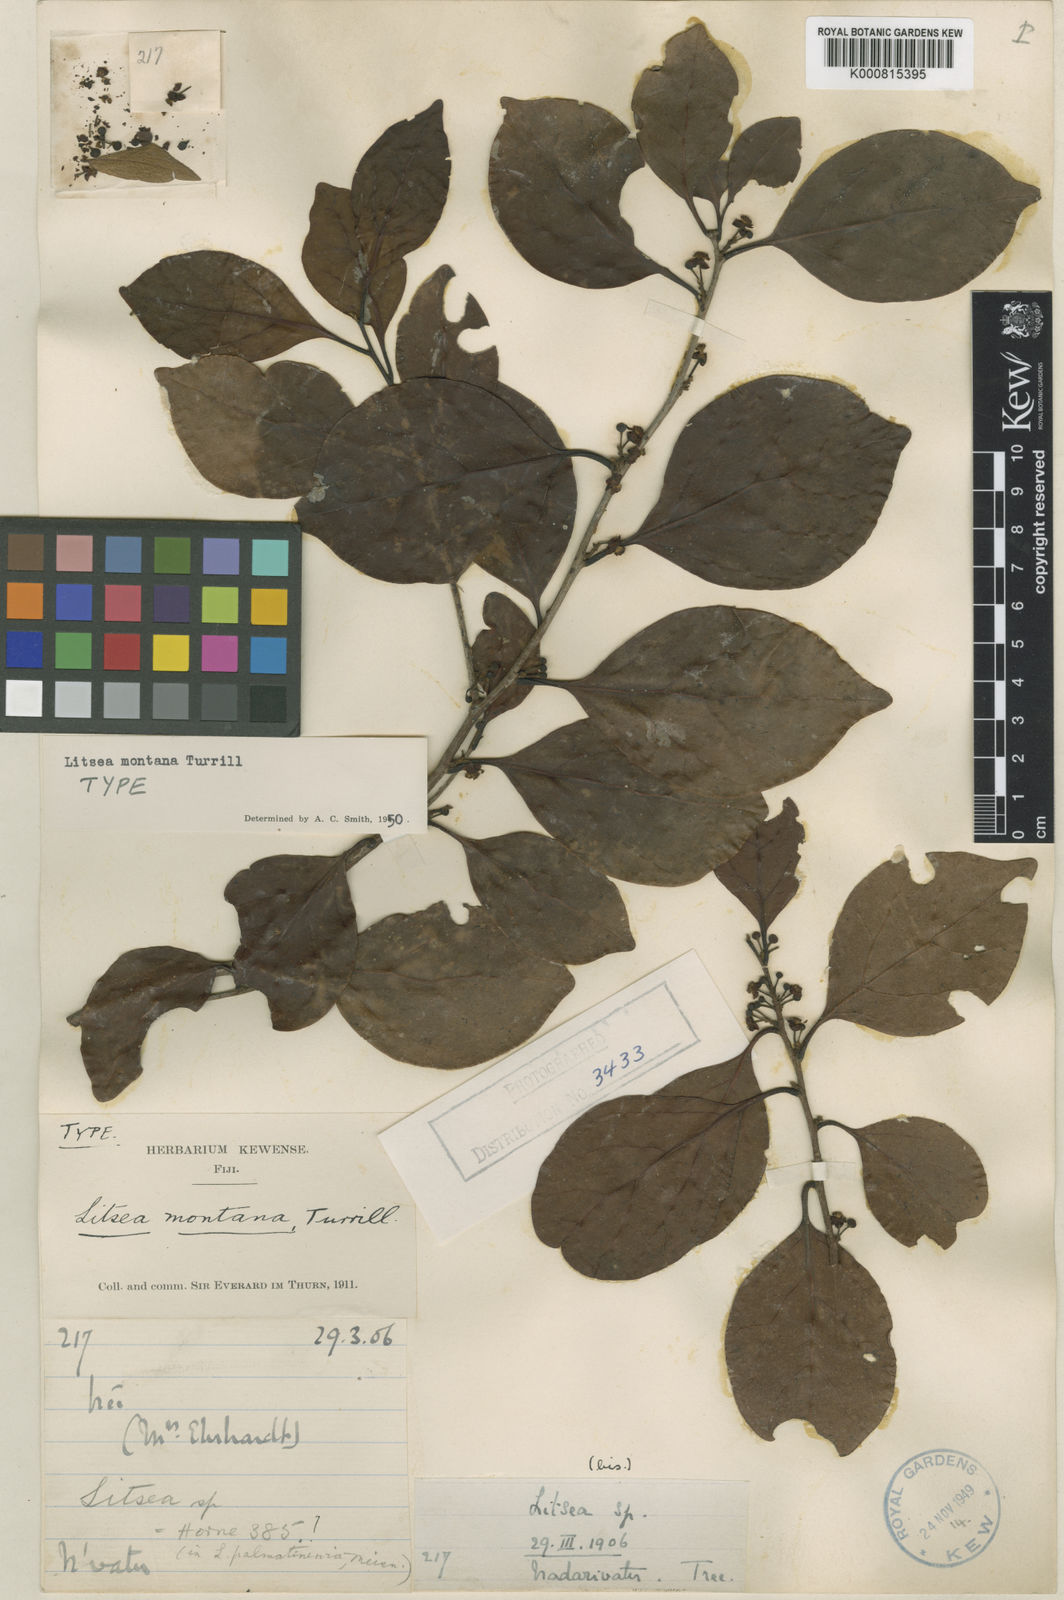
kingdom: Plantae
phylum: Tracheophyta
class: Magnoliopsida
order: Laurales
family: Lauraceae
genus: Litsea
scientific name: Litsea vitiana
